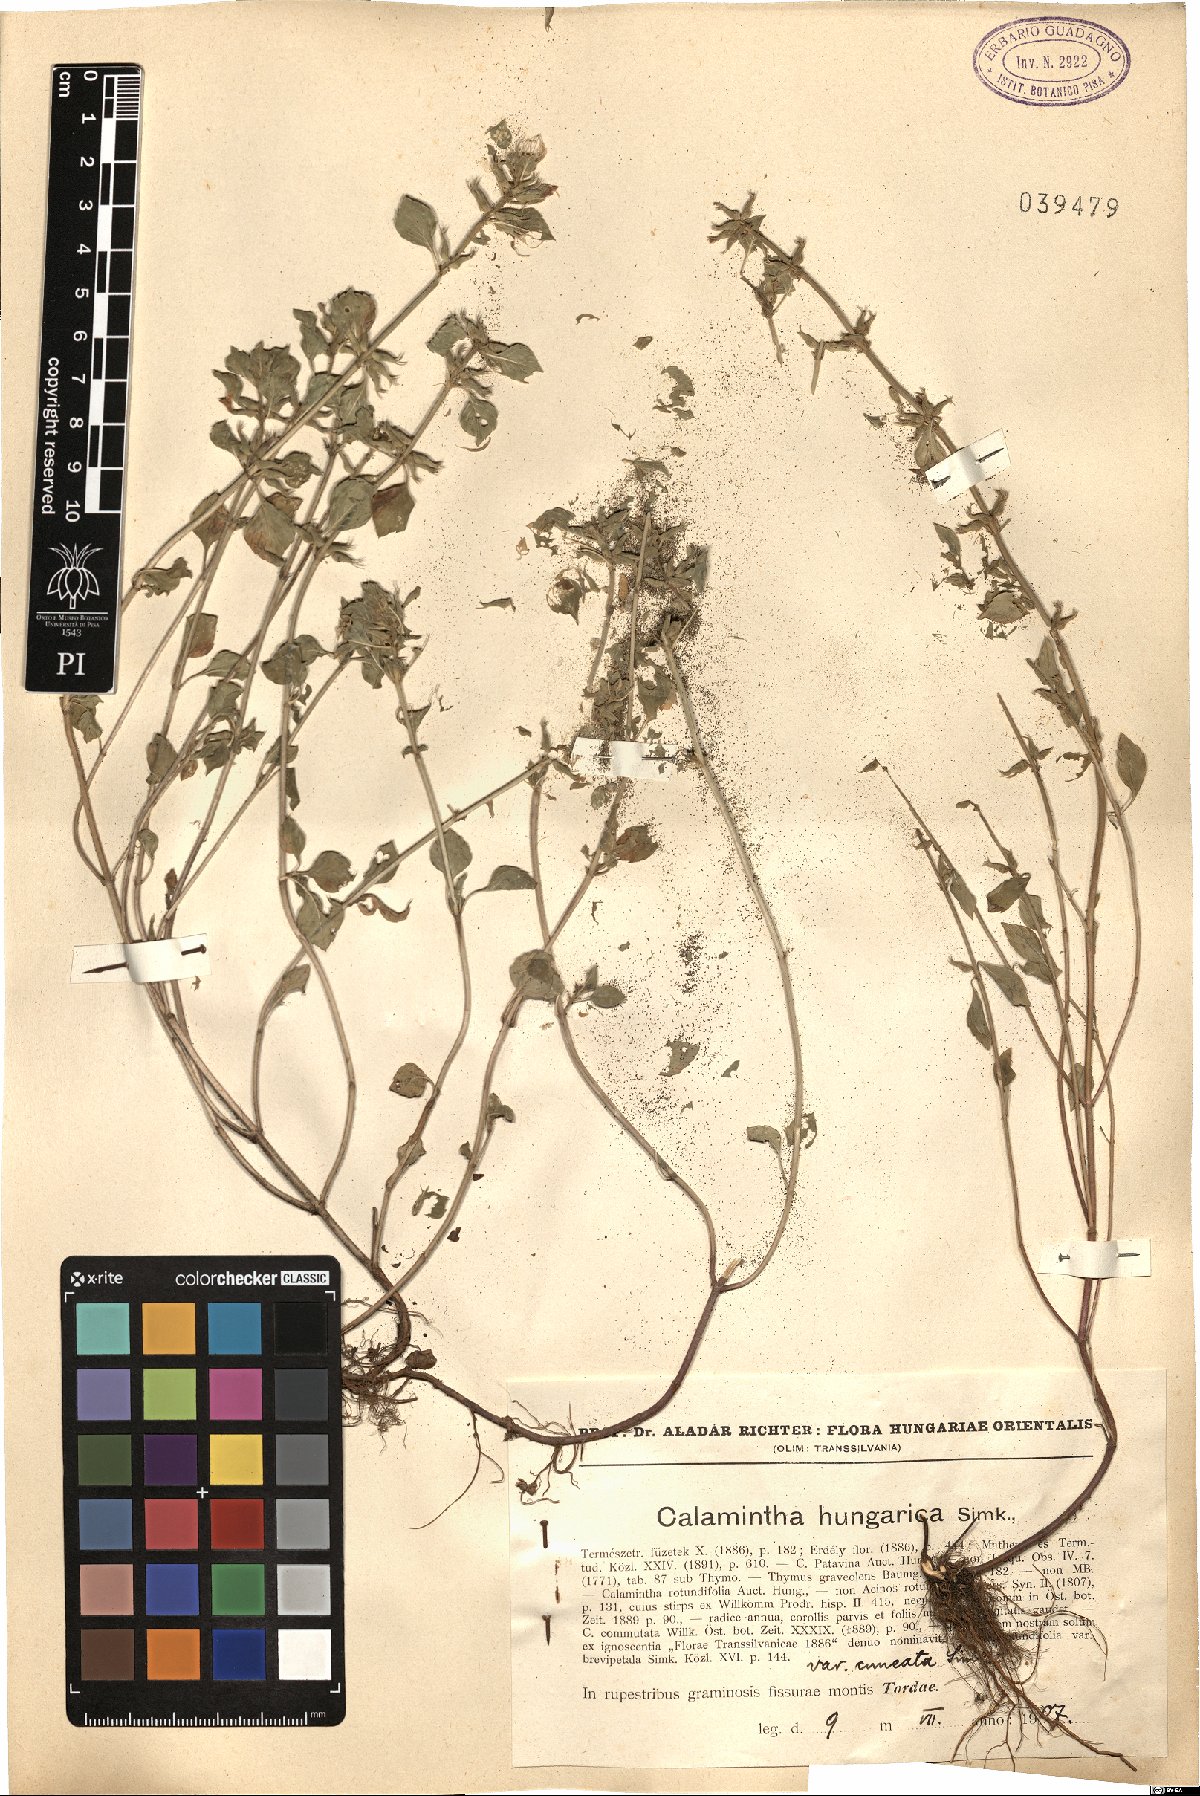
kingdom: Plantae
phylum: Tracheophyta
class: Magnoliopsida
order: Lamiales
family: Lamiaceae
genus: Clinopodium
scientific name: Clinopodium alpinum
